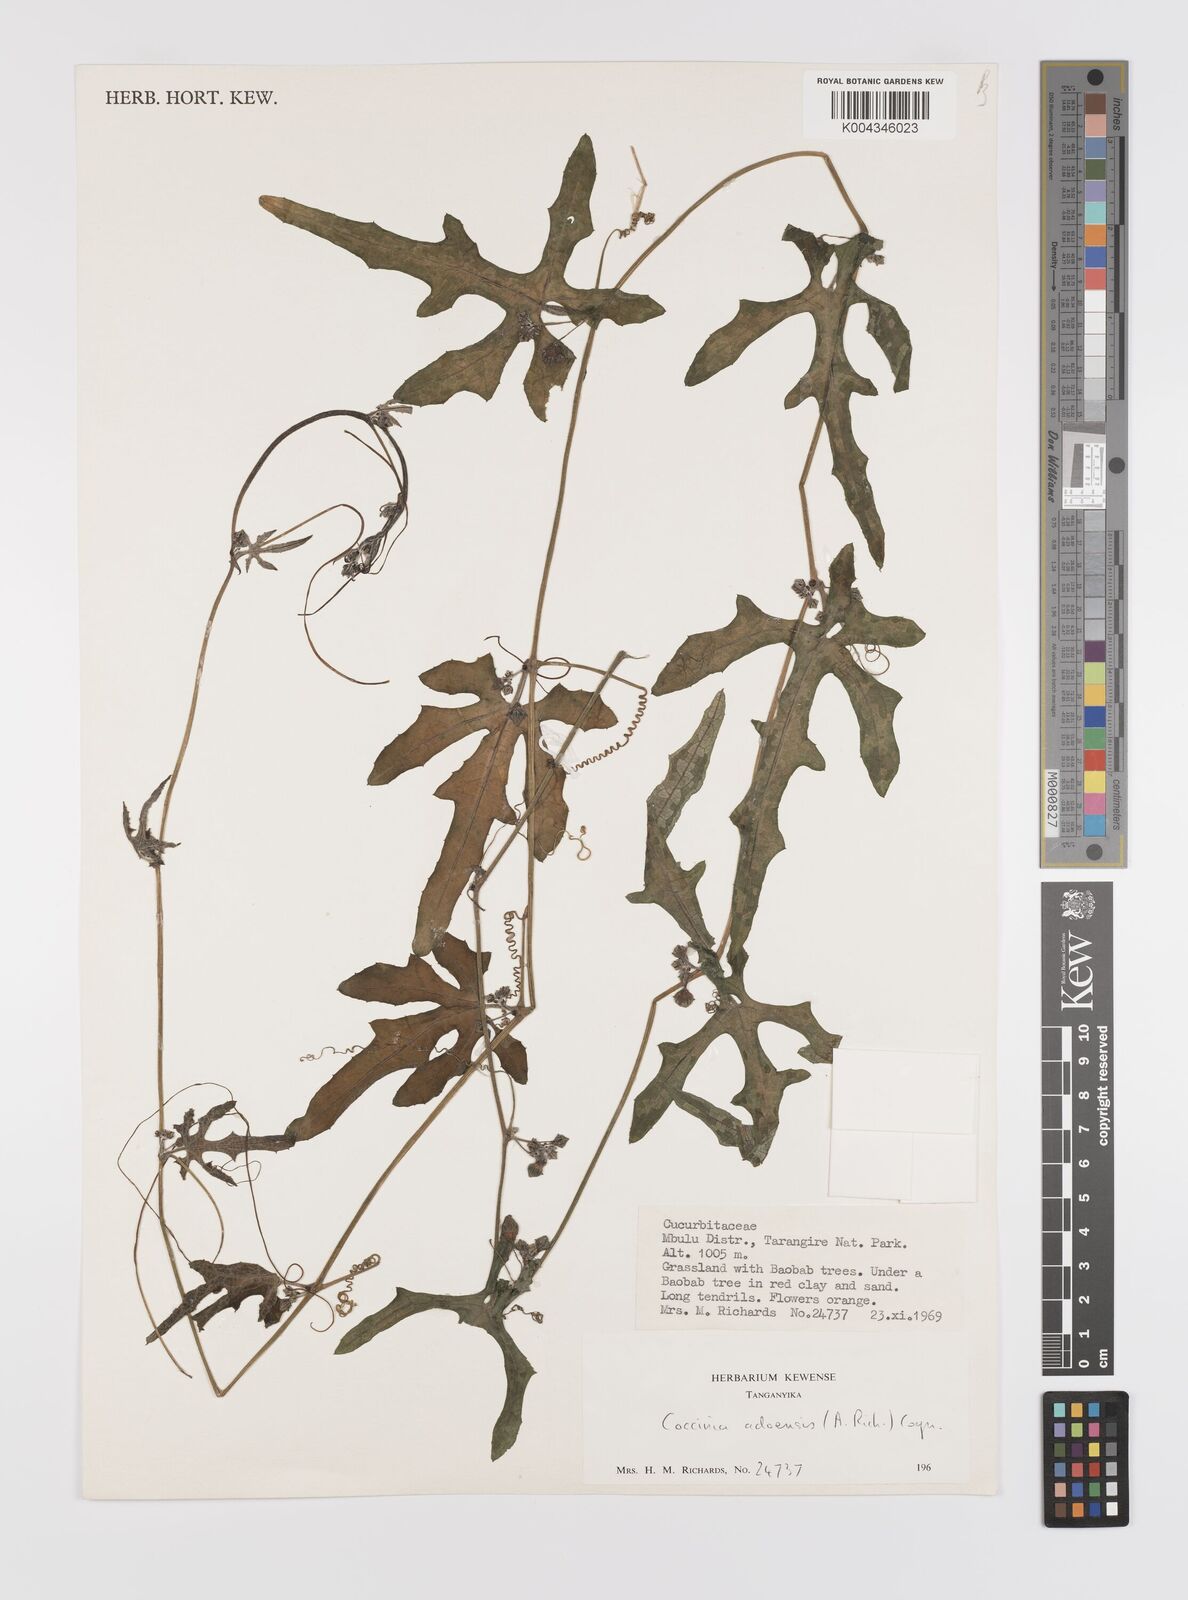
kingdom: Plantae
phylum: Tracheophyta
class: Magnoliopsida
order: Cucurbitales
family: Cucurbitaceae
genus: Coccinia
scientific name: Coccinia adoensis
